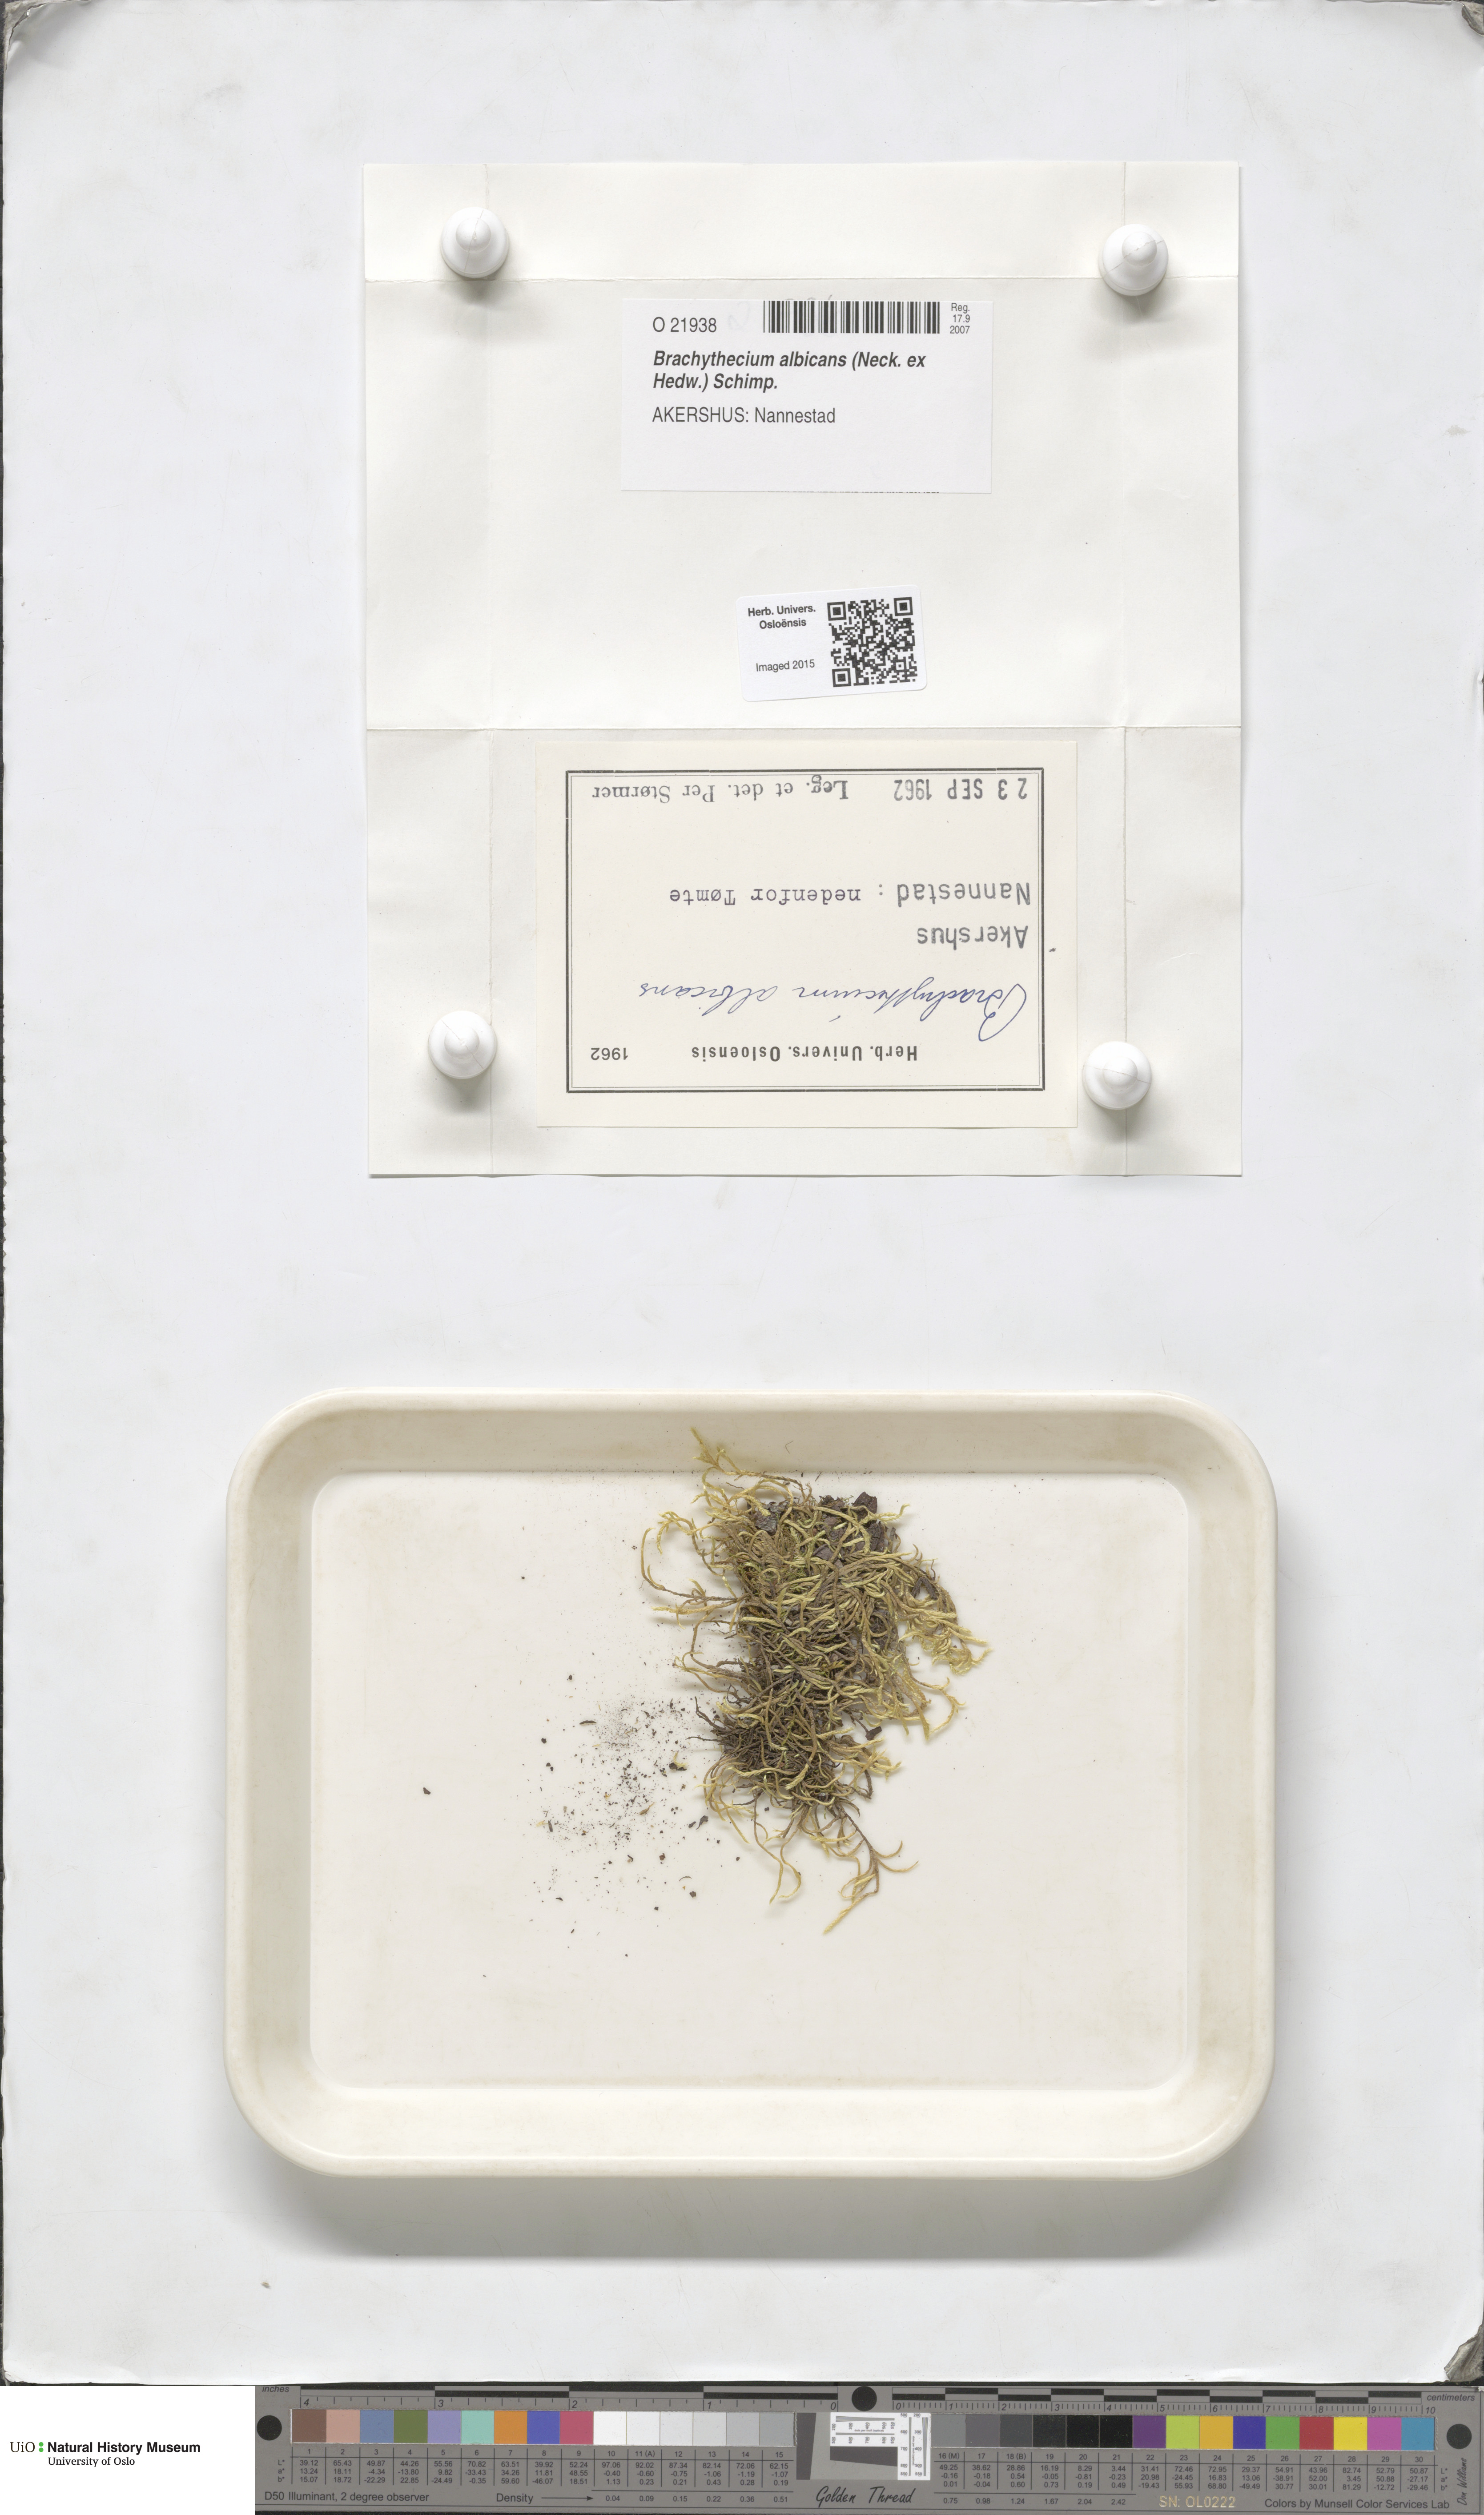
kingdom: Plantae
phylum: Bryophyta
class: Bryopsida
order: Hypnales
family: Brachytheciaceae
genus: Brachythecium
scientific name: Brachythecium albicans
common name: Whitish ragged moss
